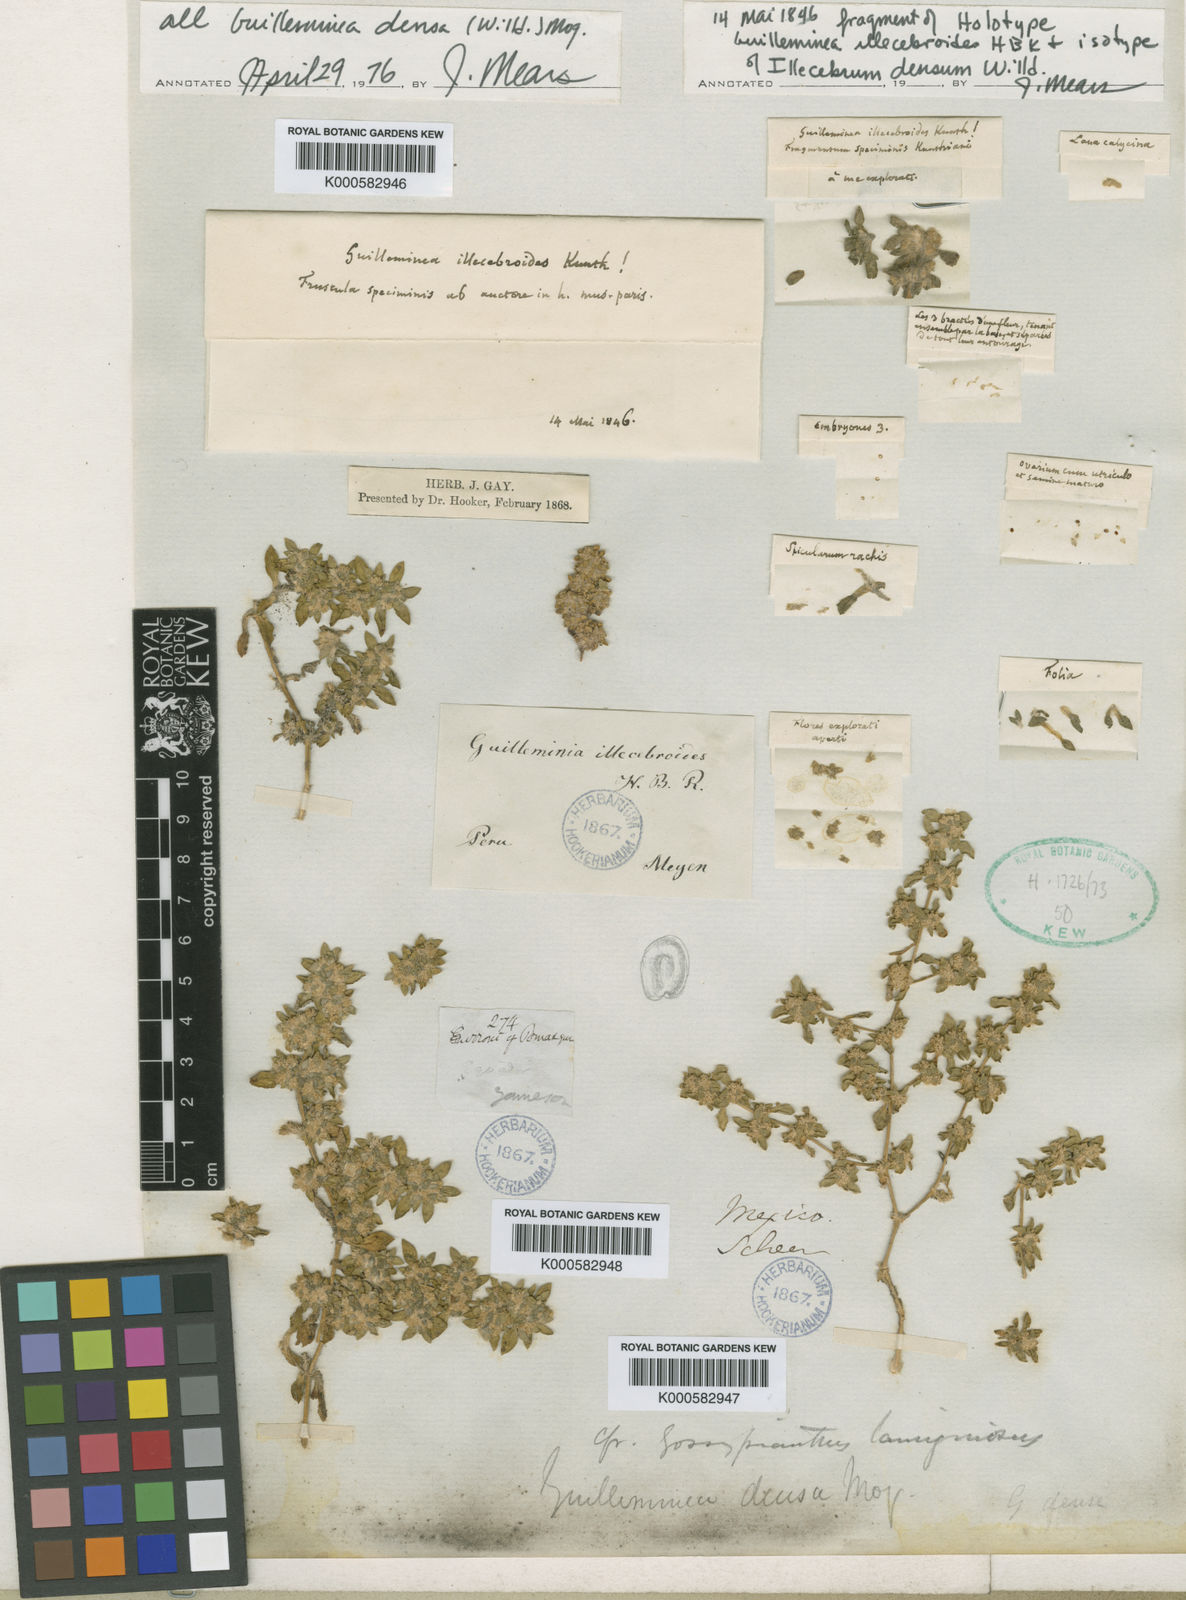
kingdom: Plantae
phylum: Tracheophyta
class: Magnoliopsida
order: Caryophyllales
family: Amaranthaceae
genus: Guilleminea
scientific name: Guilleminea densa
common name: Small matweed
